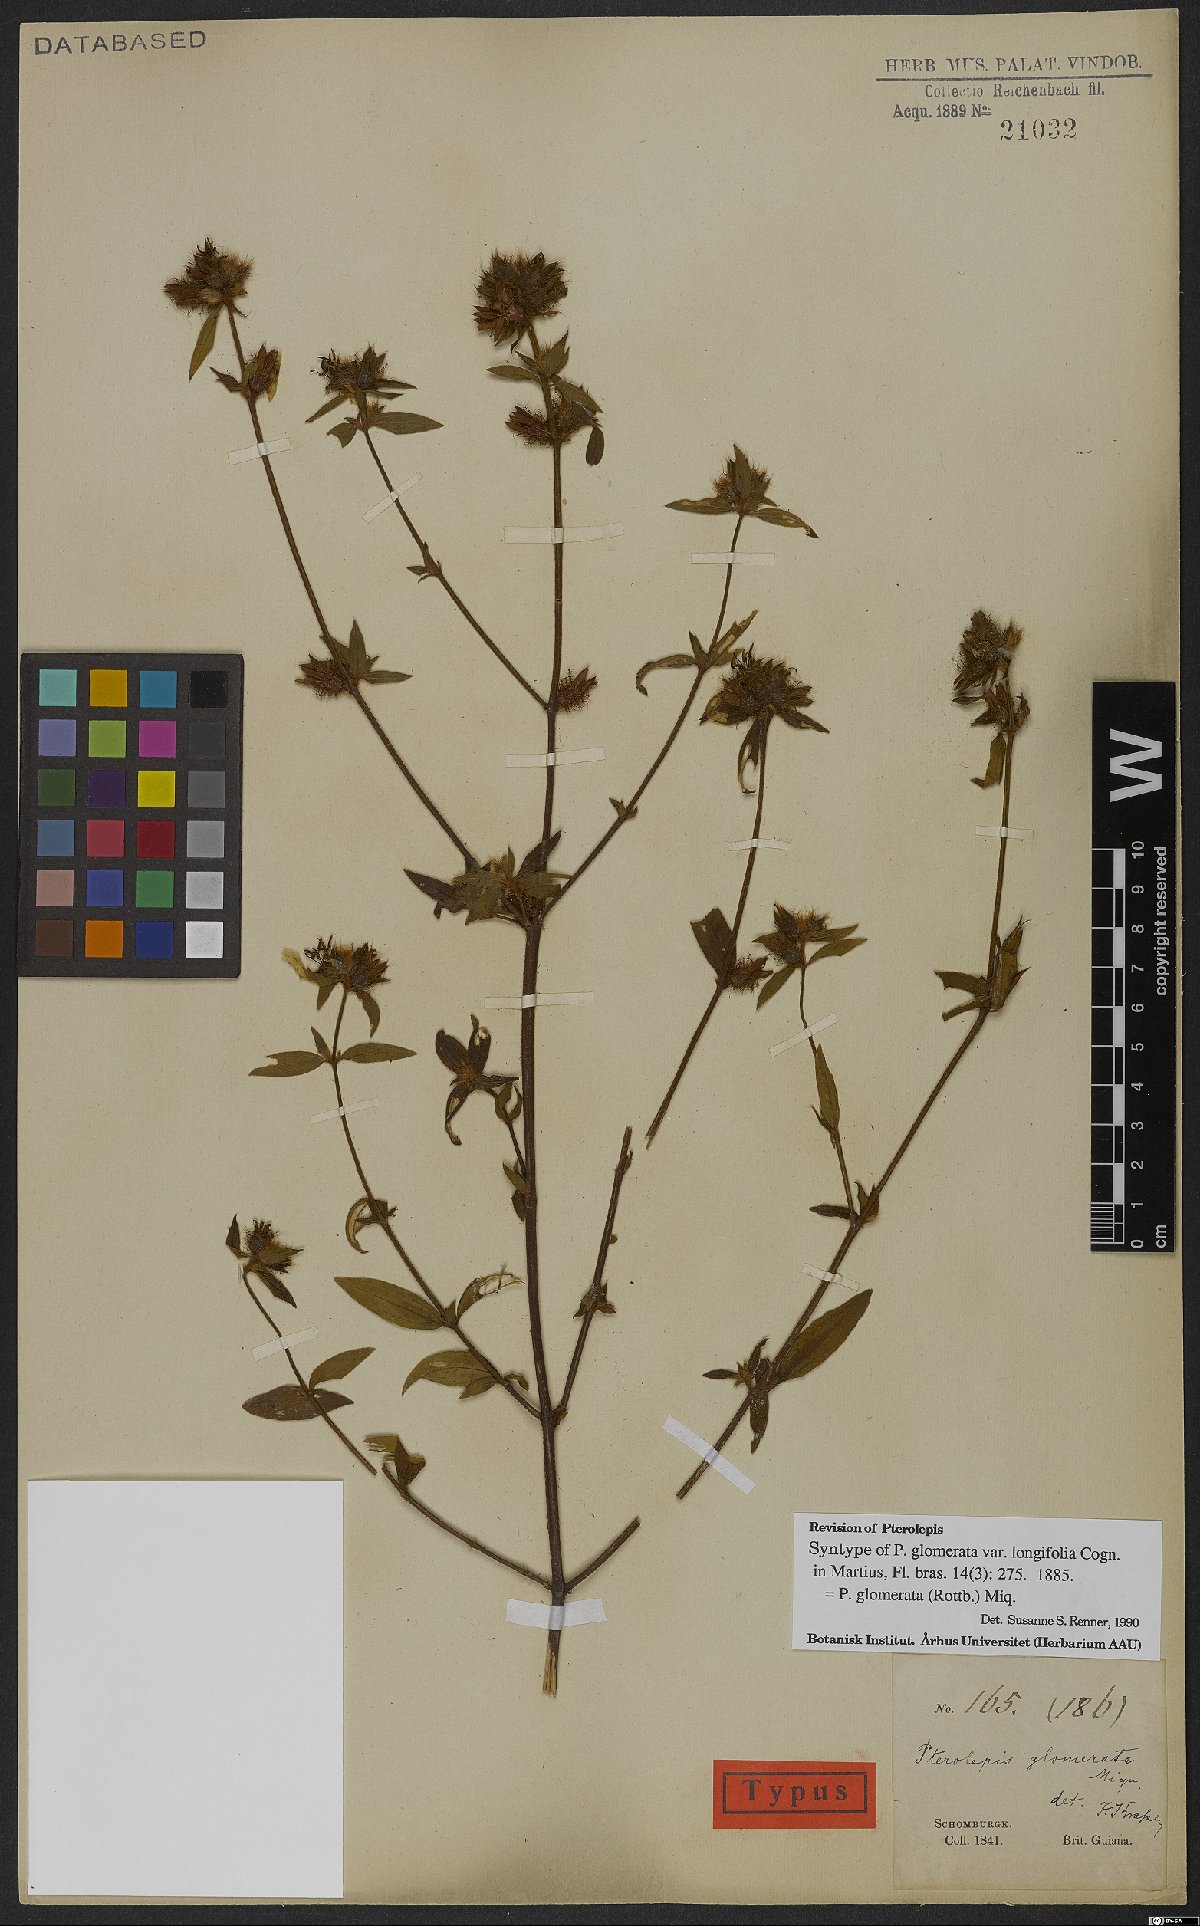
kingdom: Plantae
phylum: Tracheophyta
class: Magnoliopsida
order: Myrtales
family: Melastomataceae
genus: Pterolepis
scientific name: Pterolepis glomerata
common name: False meadowbeauty
